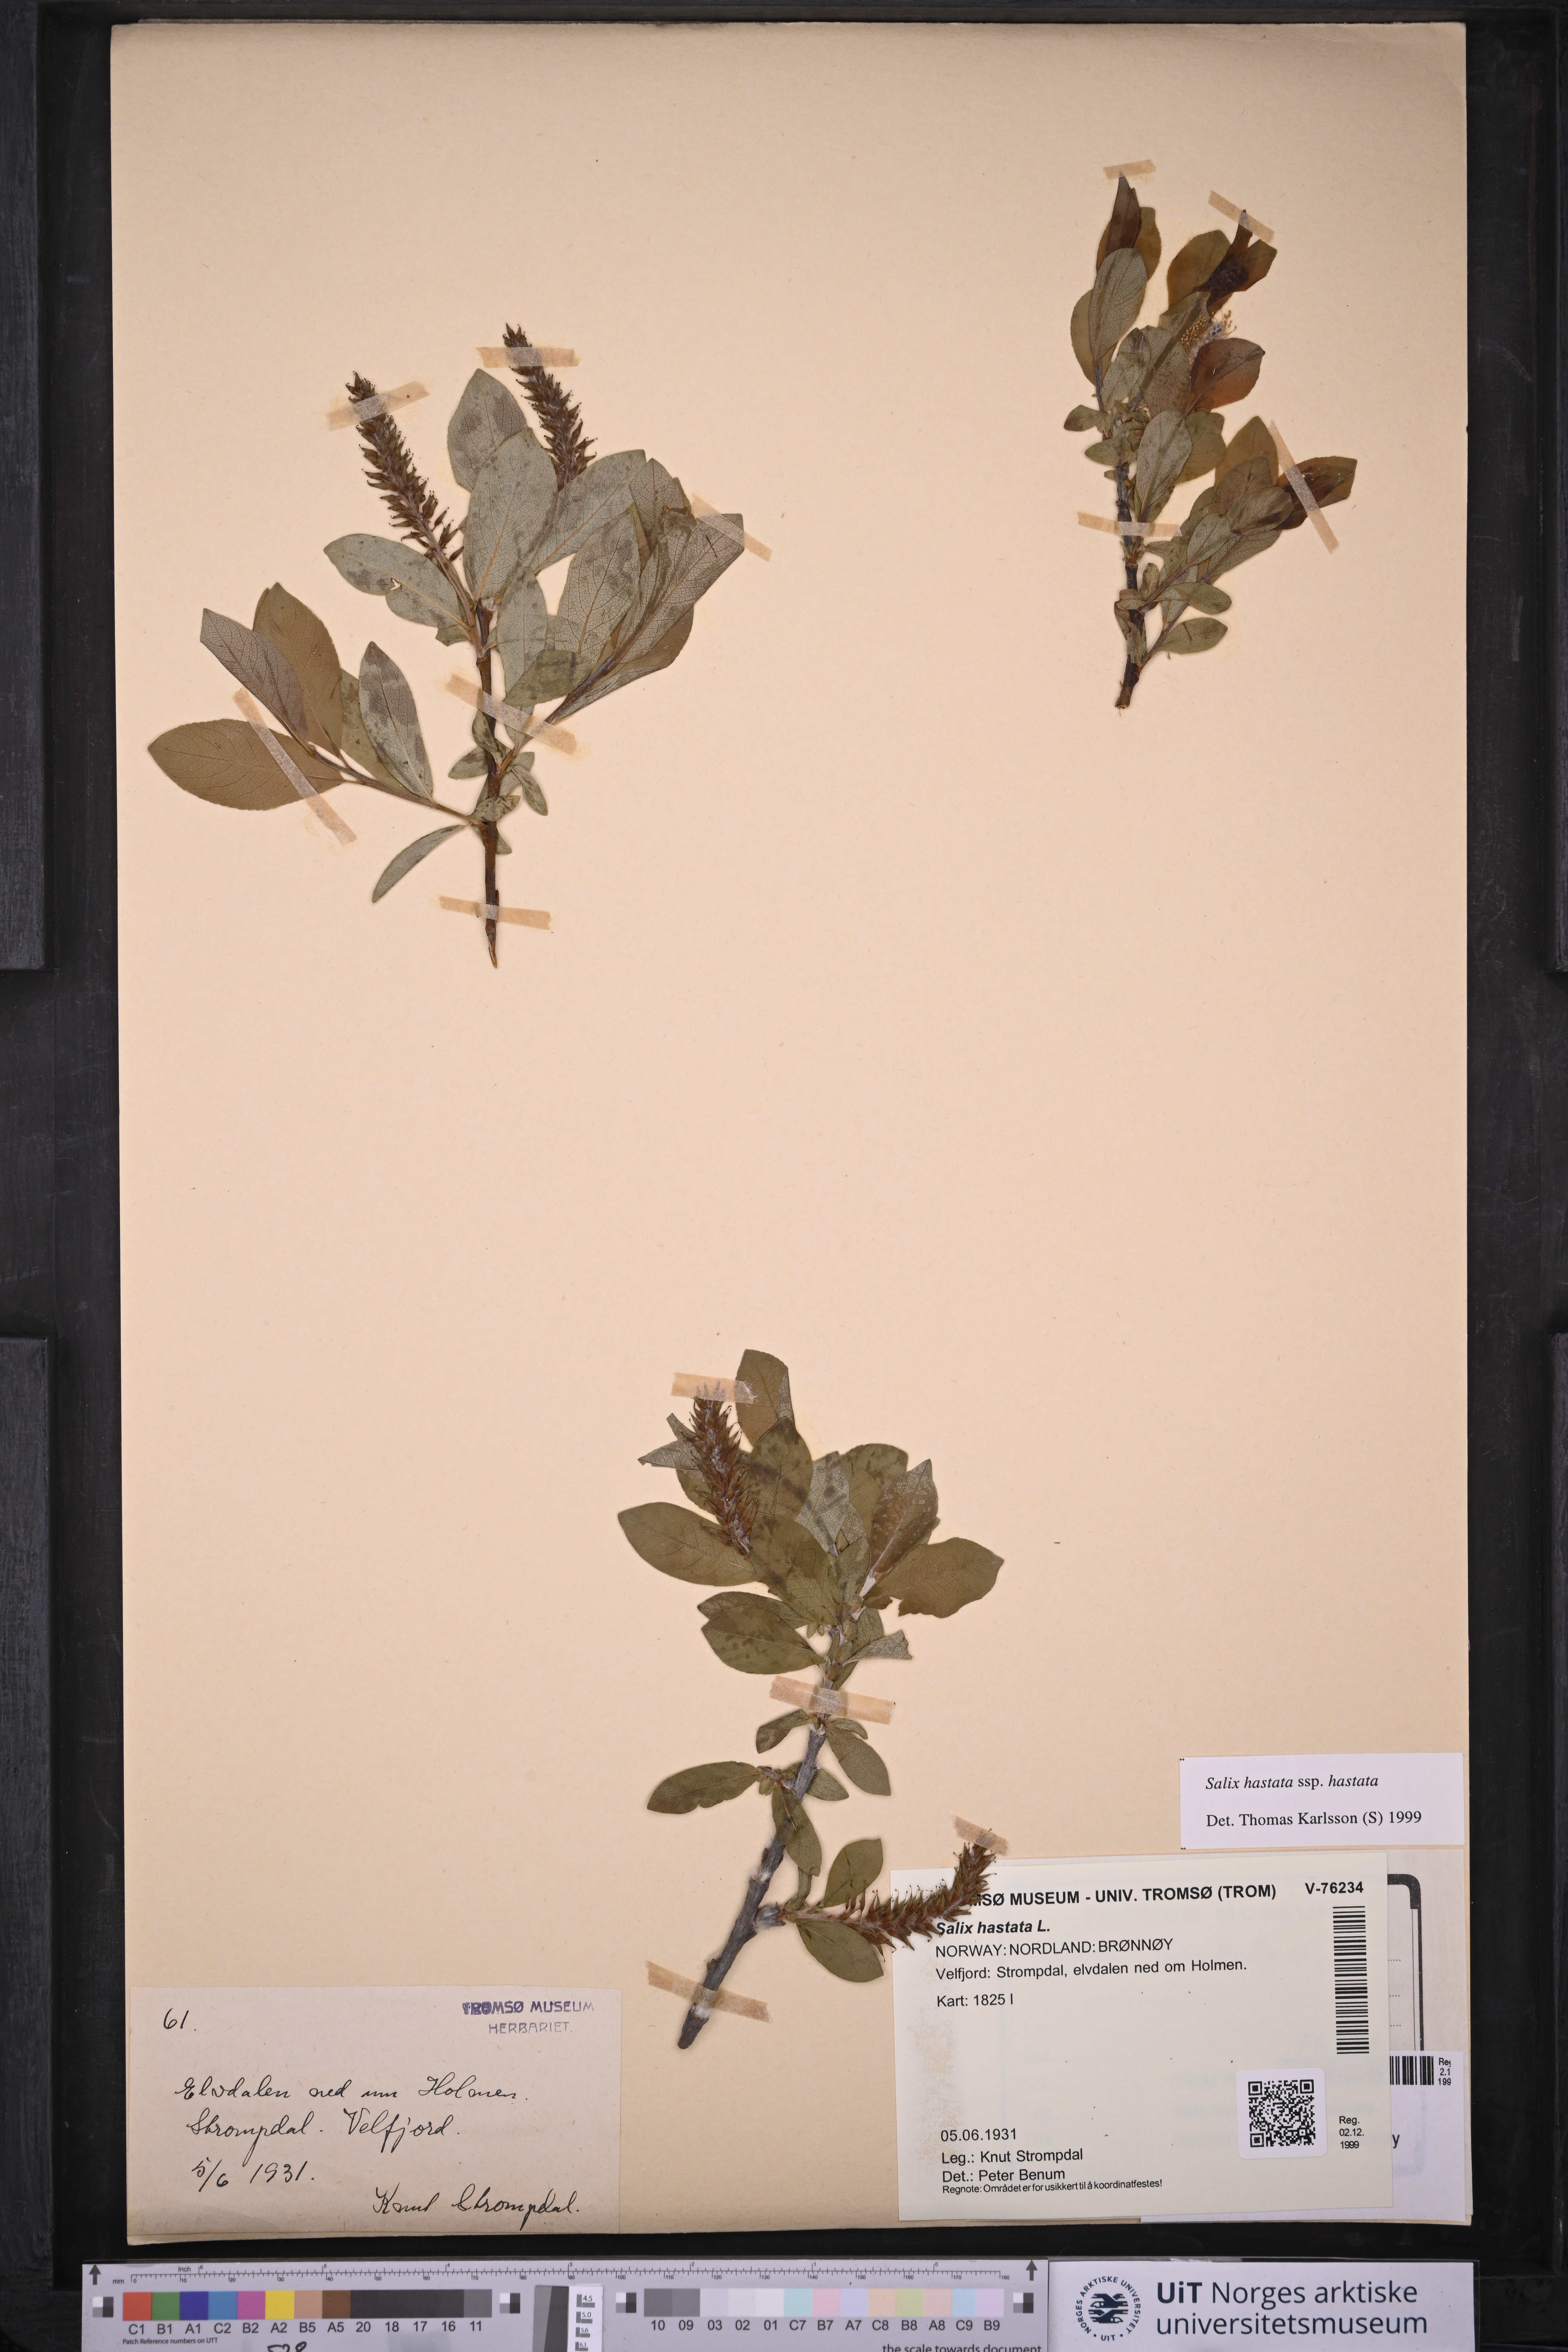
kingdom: Plantae
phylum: Tracheophyta
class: Magnoliopsida
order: Malpighiales
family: Salicaceae
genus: Salix
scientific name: Salix hastata
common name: Halberd willow
